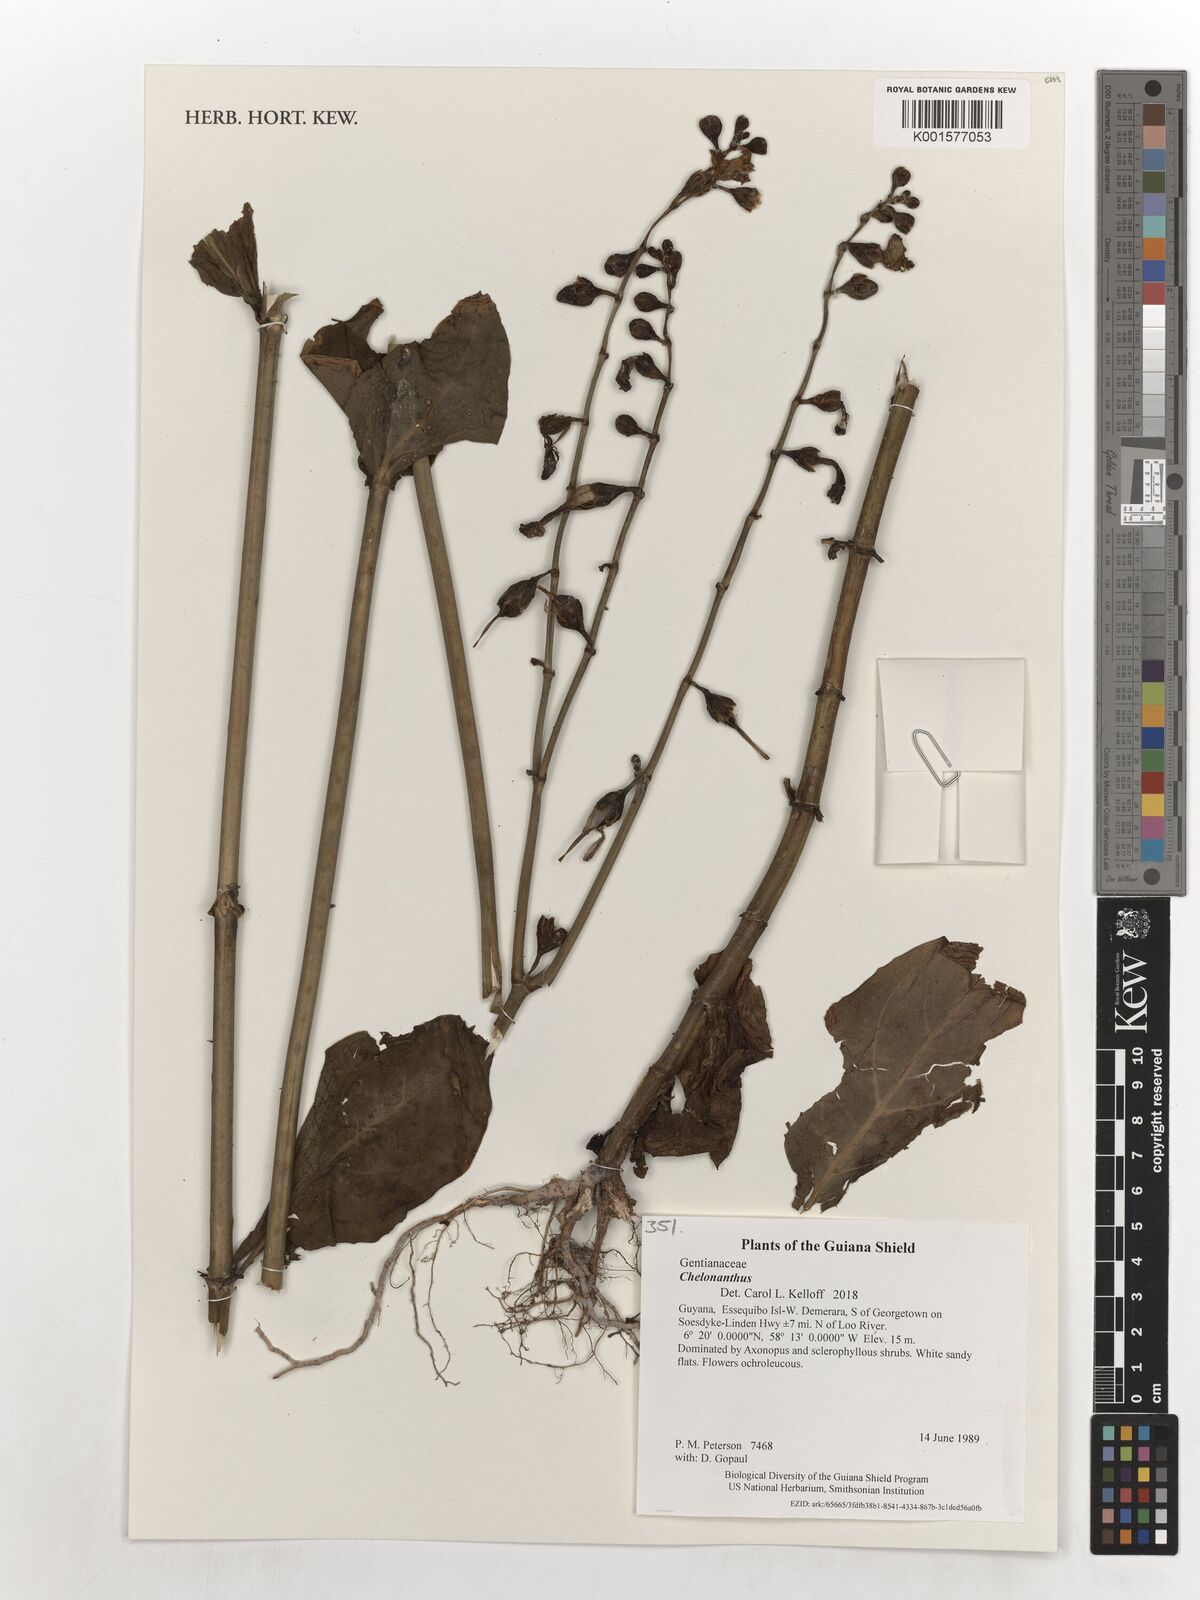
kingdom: Plantae
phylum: Tracheophyta
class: Magnoliopsida
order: Gentianales
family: Gentianaceae
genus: Chelonanthus
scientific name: Chelonanthus
